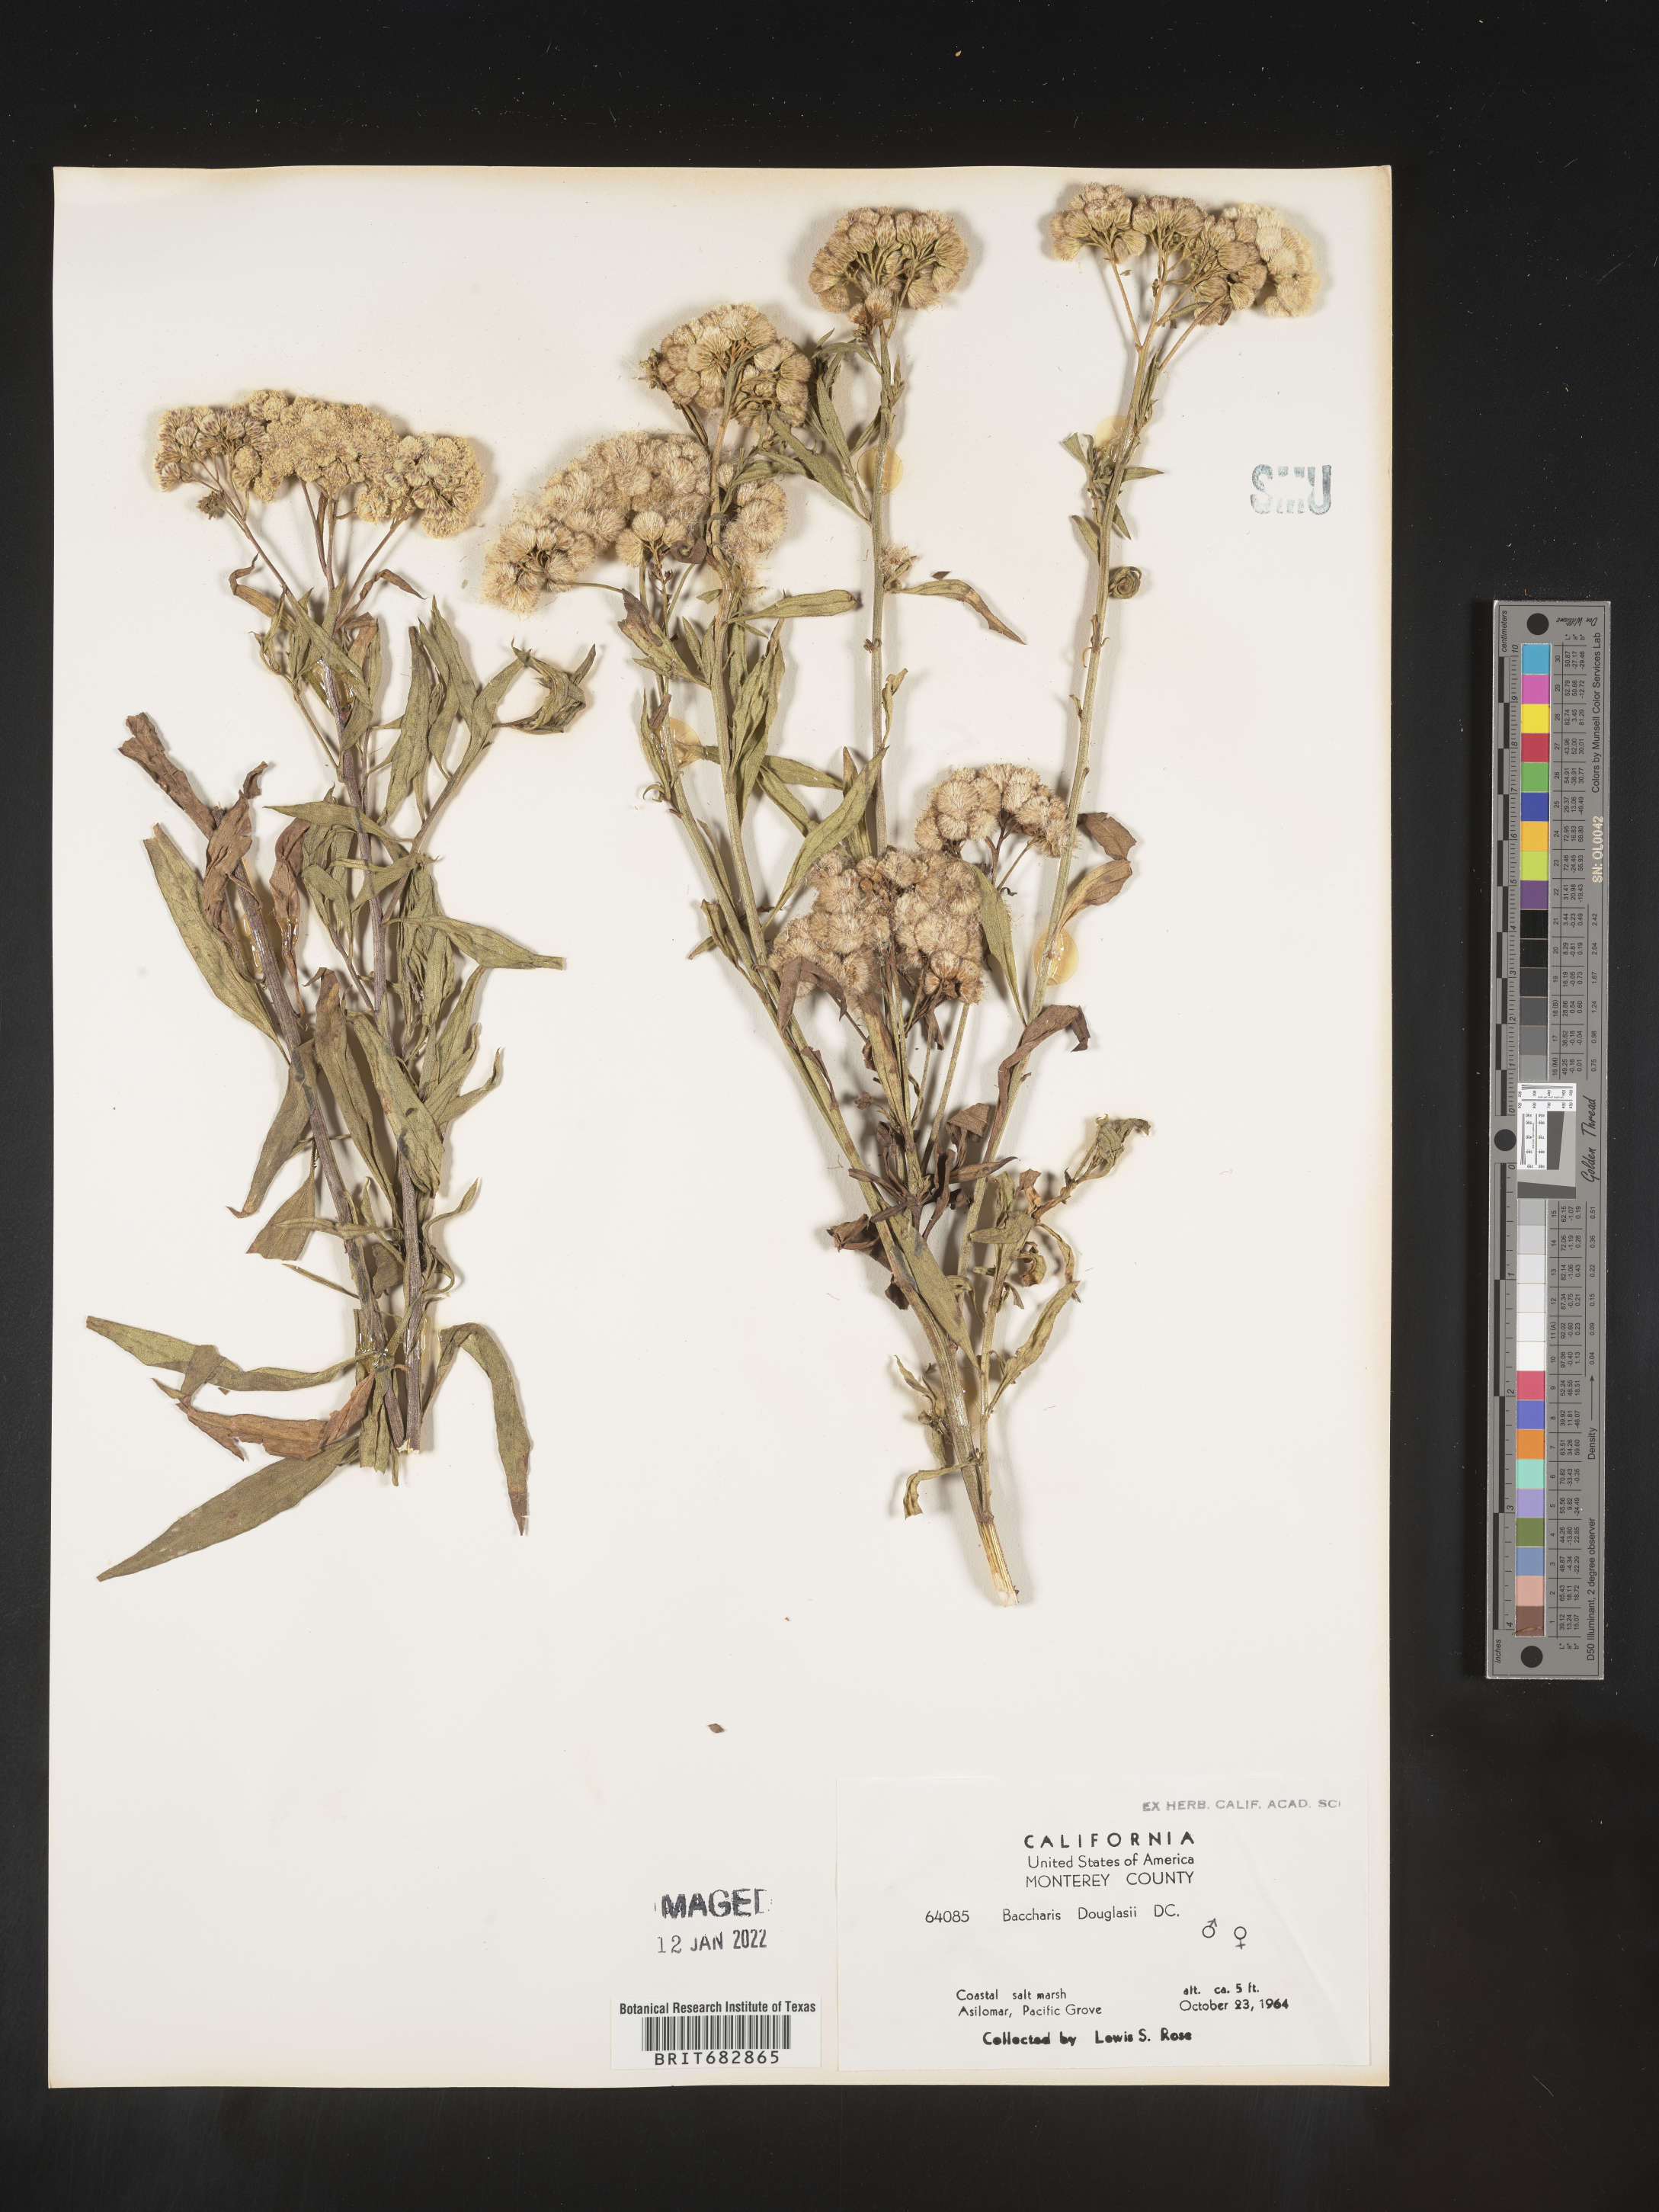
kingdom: Plantae
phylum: Tracheophyta
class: Magnoliopsida
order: Asterales
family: Asteraceae
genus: Baccharis
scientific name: Baccharis douglasii
